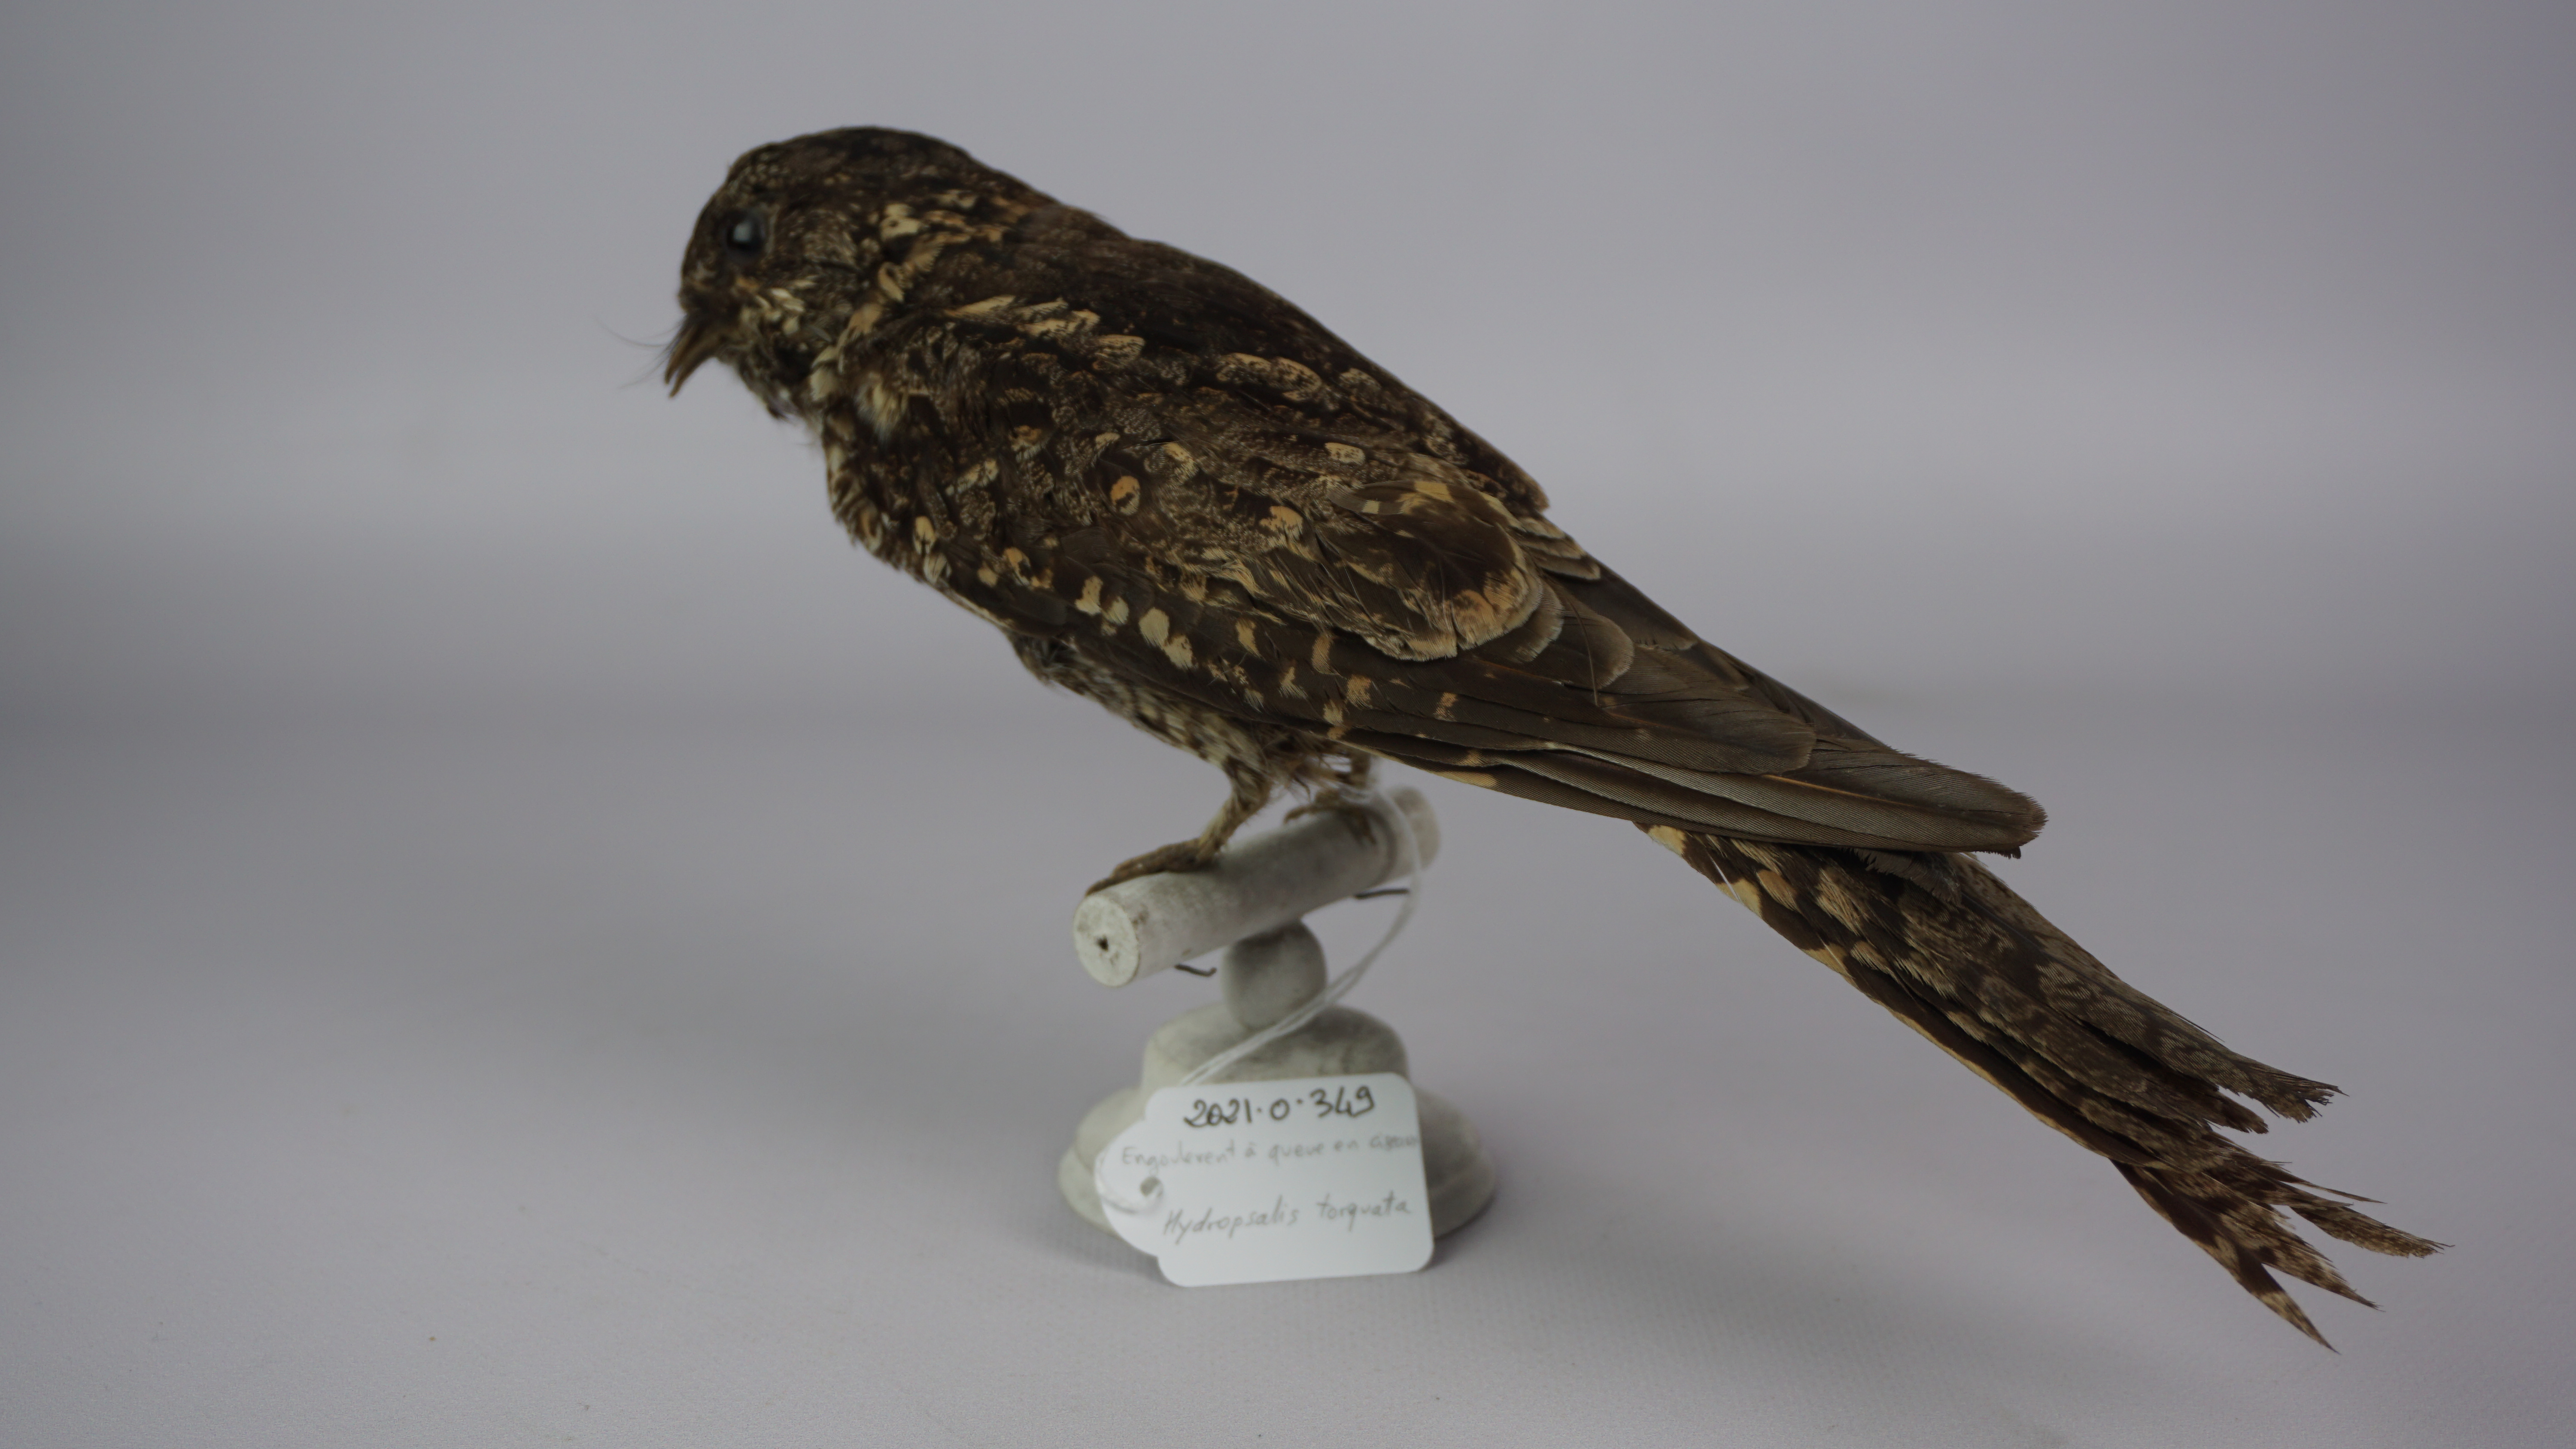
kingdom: Animalia
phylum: Chordata
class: Aves
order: Caprimulgiformes
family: Caprimulgidae
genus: Hydropsalis
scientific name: Hydropsalis torquata
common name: Scissor-tailed nightjar
